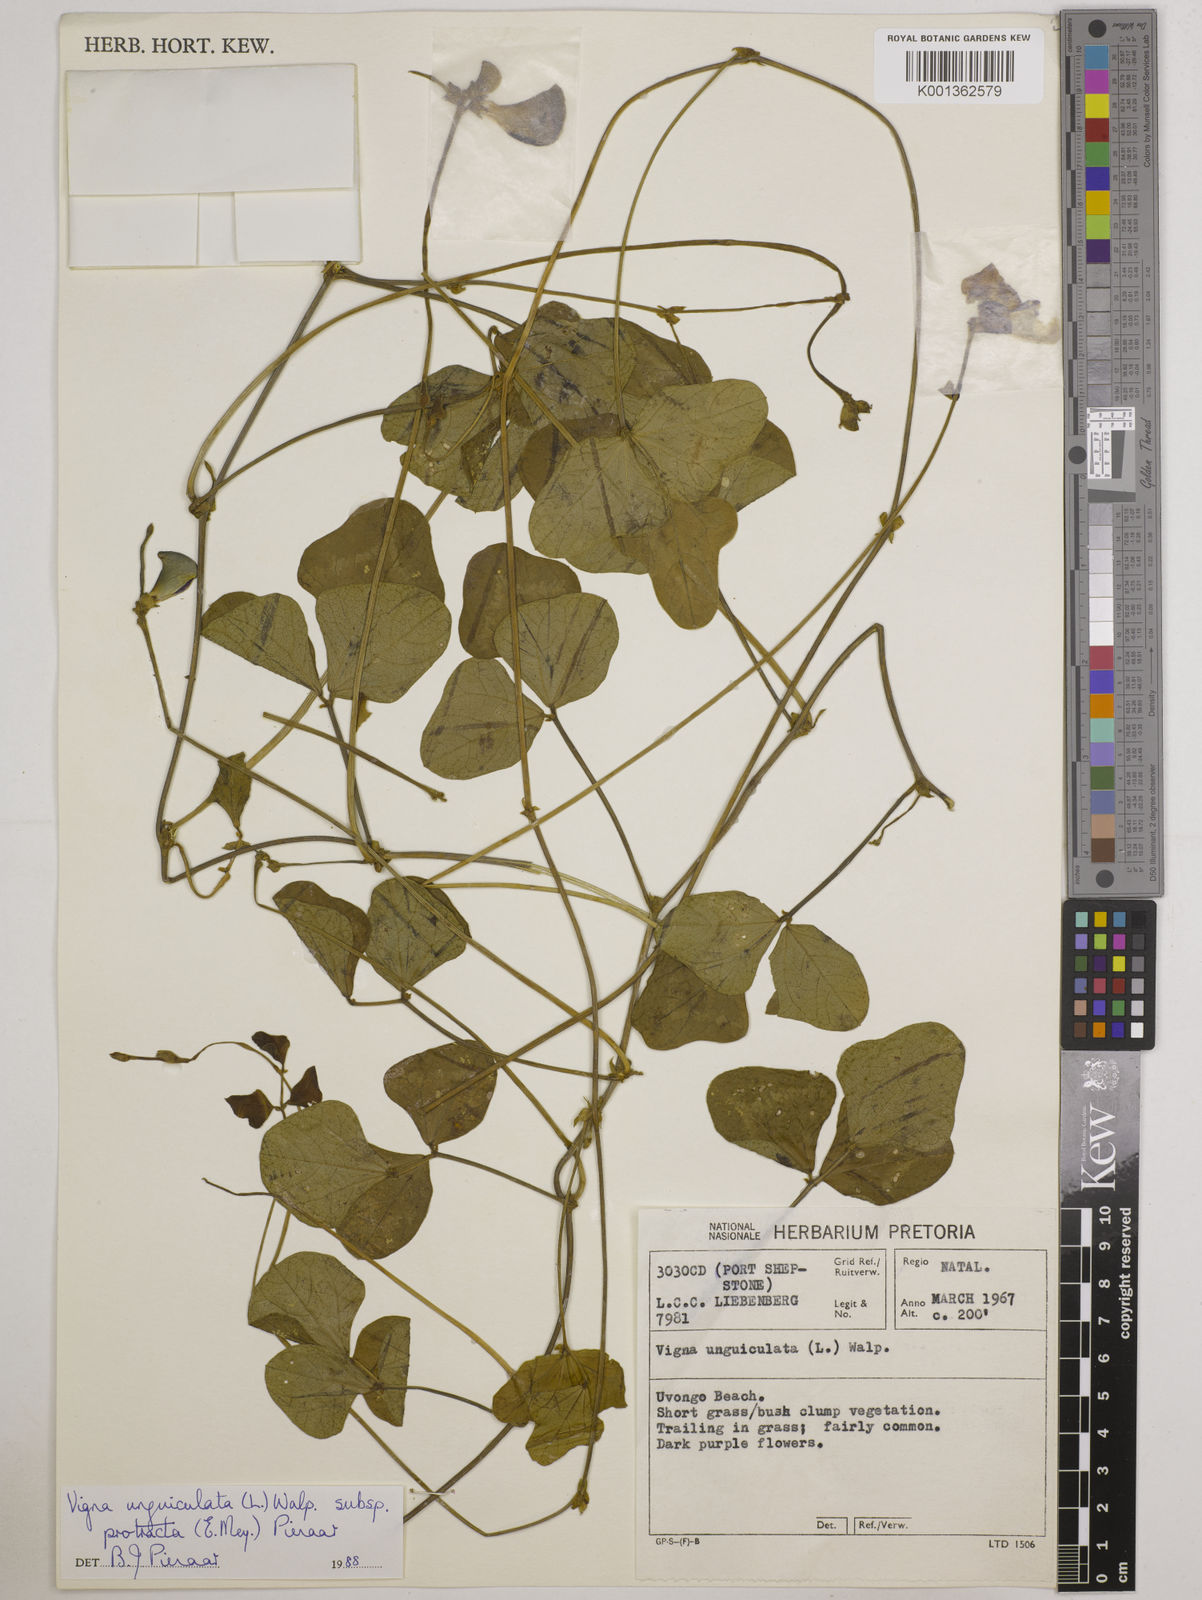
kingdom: Plantae
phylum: Tracheophyta
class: Magnoliopsida
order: Fabales
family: Fabaceae
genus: Vigna
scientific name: Vigna unguiculata
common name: Cowpea
